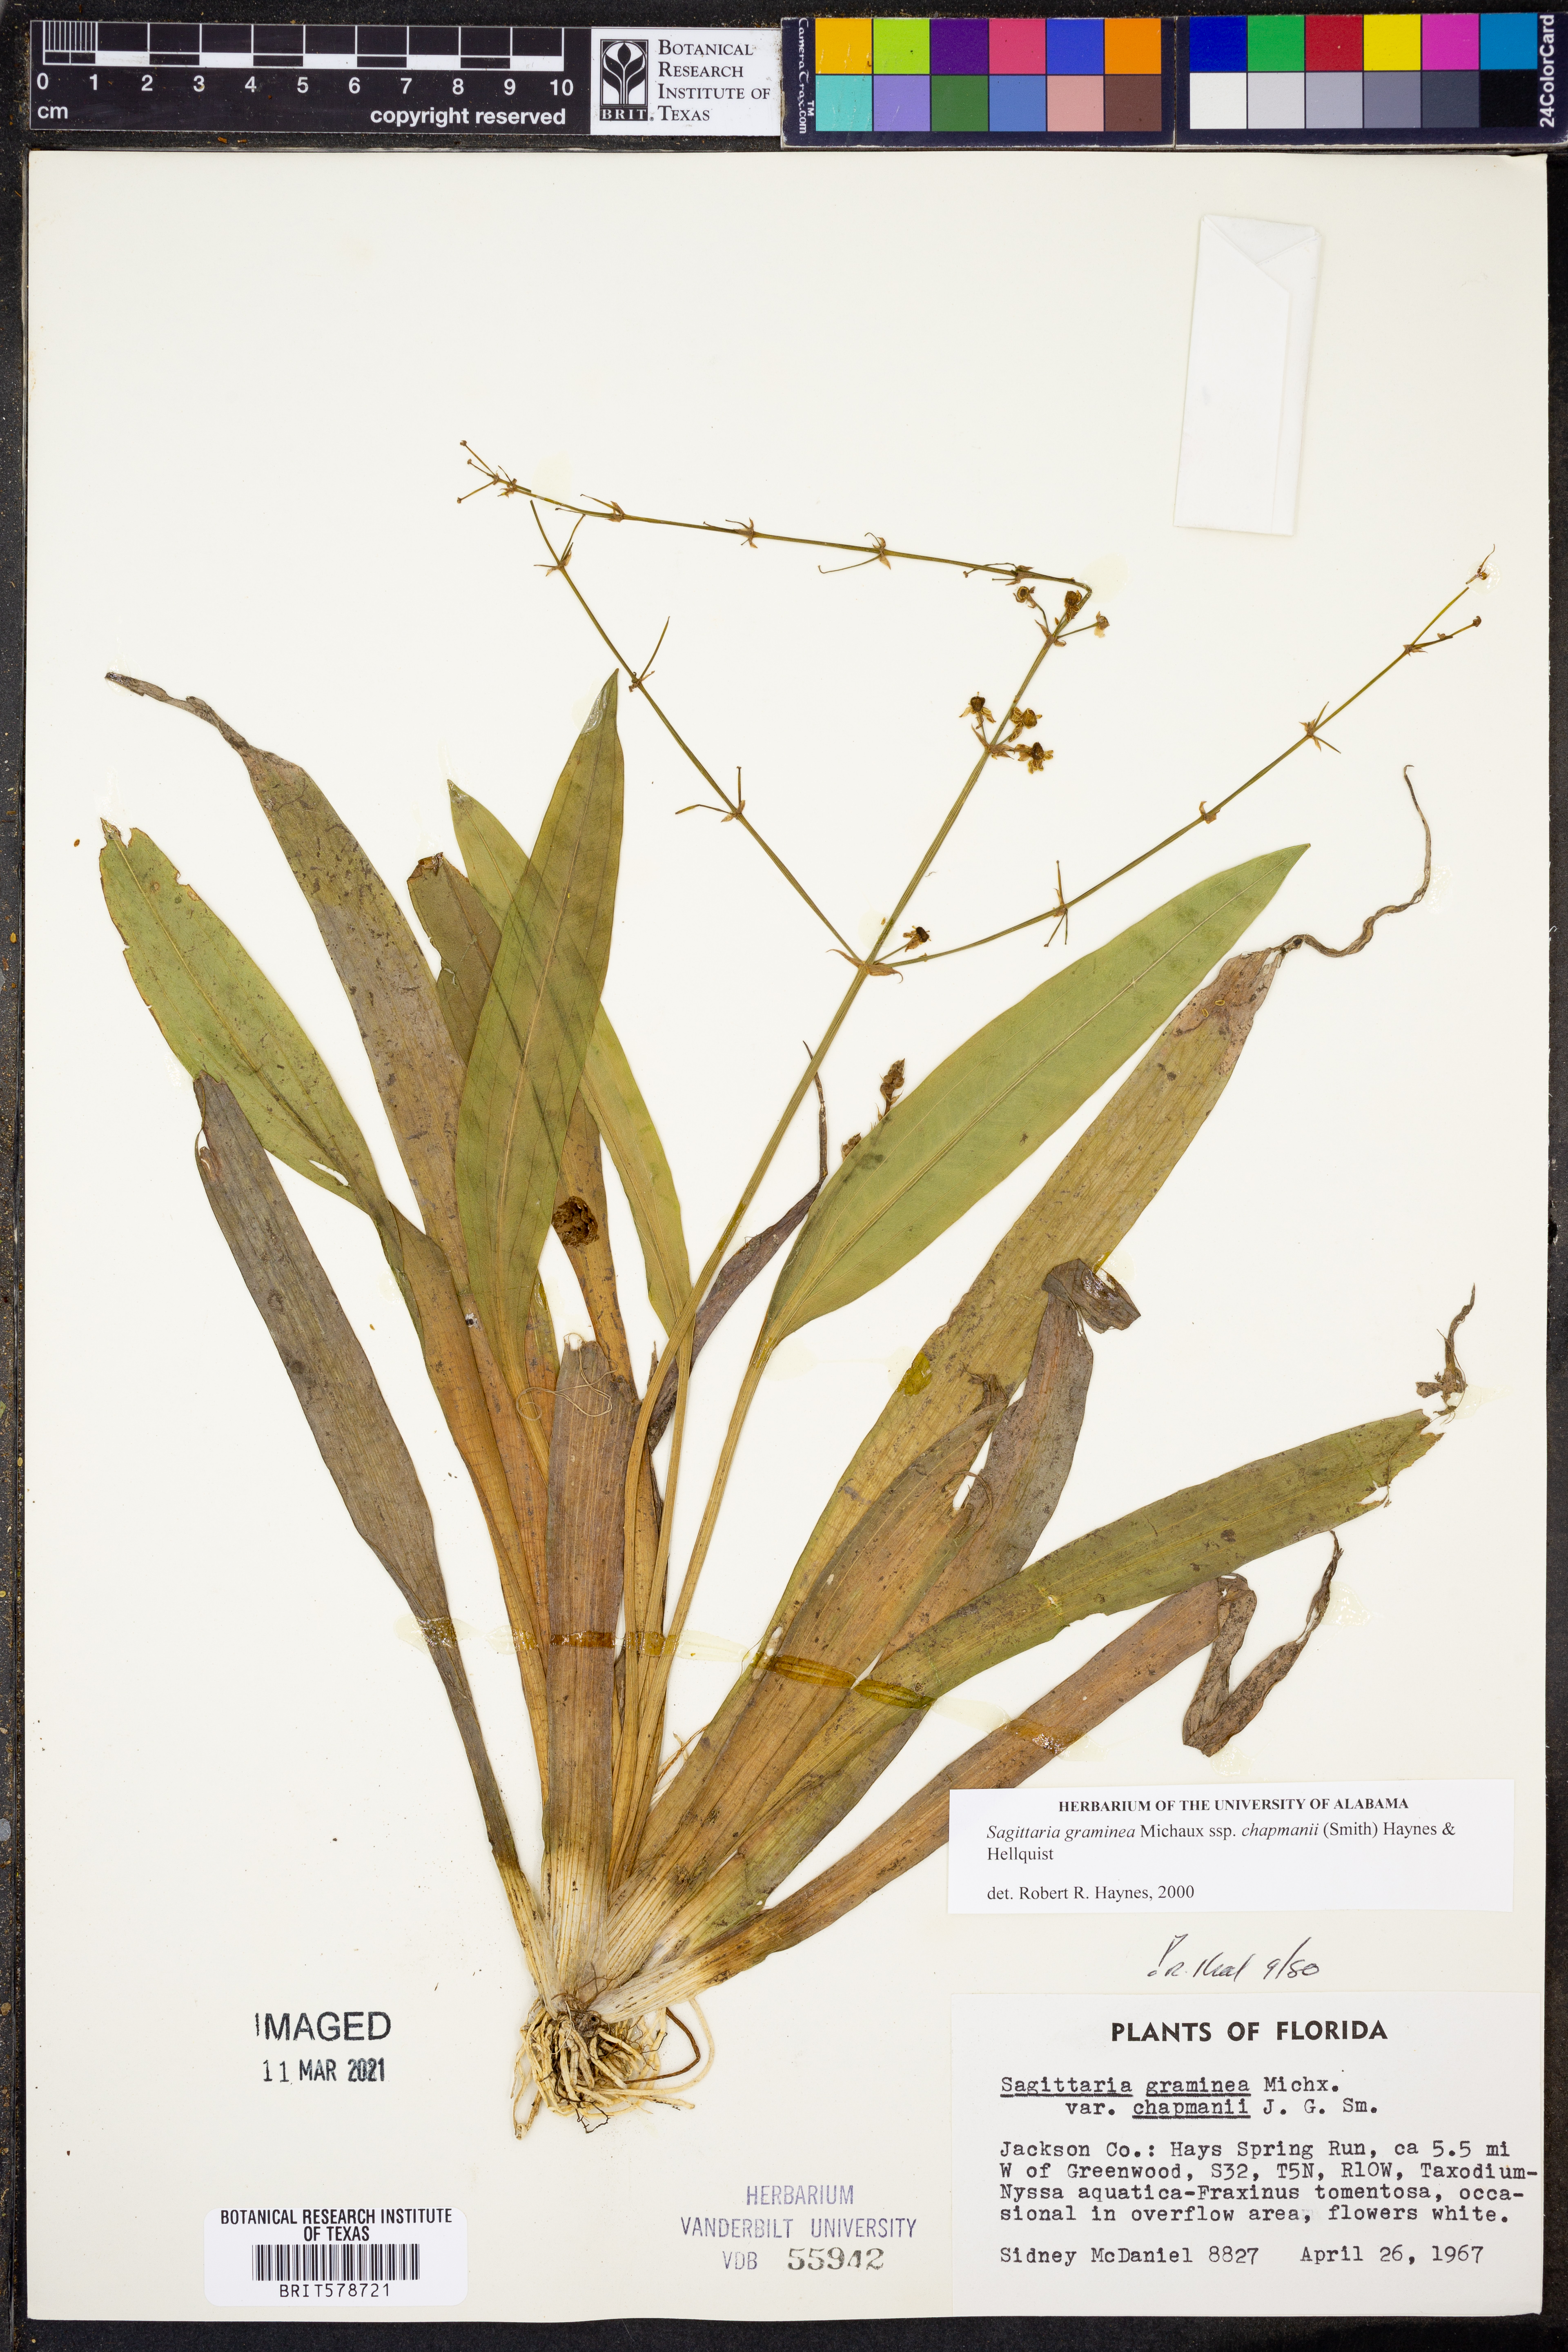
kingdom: Plantae
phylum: Tracheophyta
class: Liliopsida
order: Alismatales
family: Alismataceae
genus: Sagittaria
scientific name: Sagittaria chapmanii
